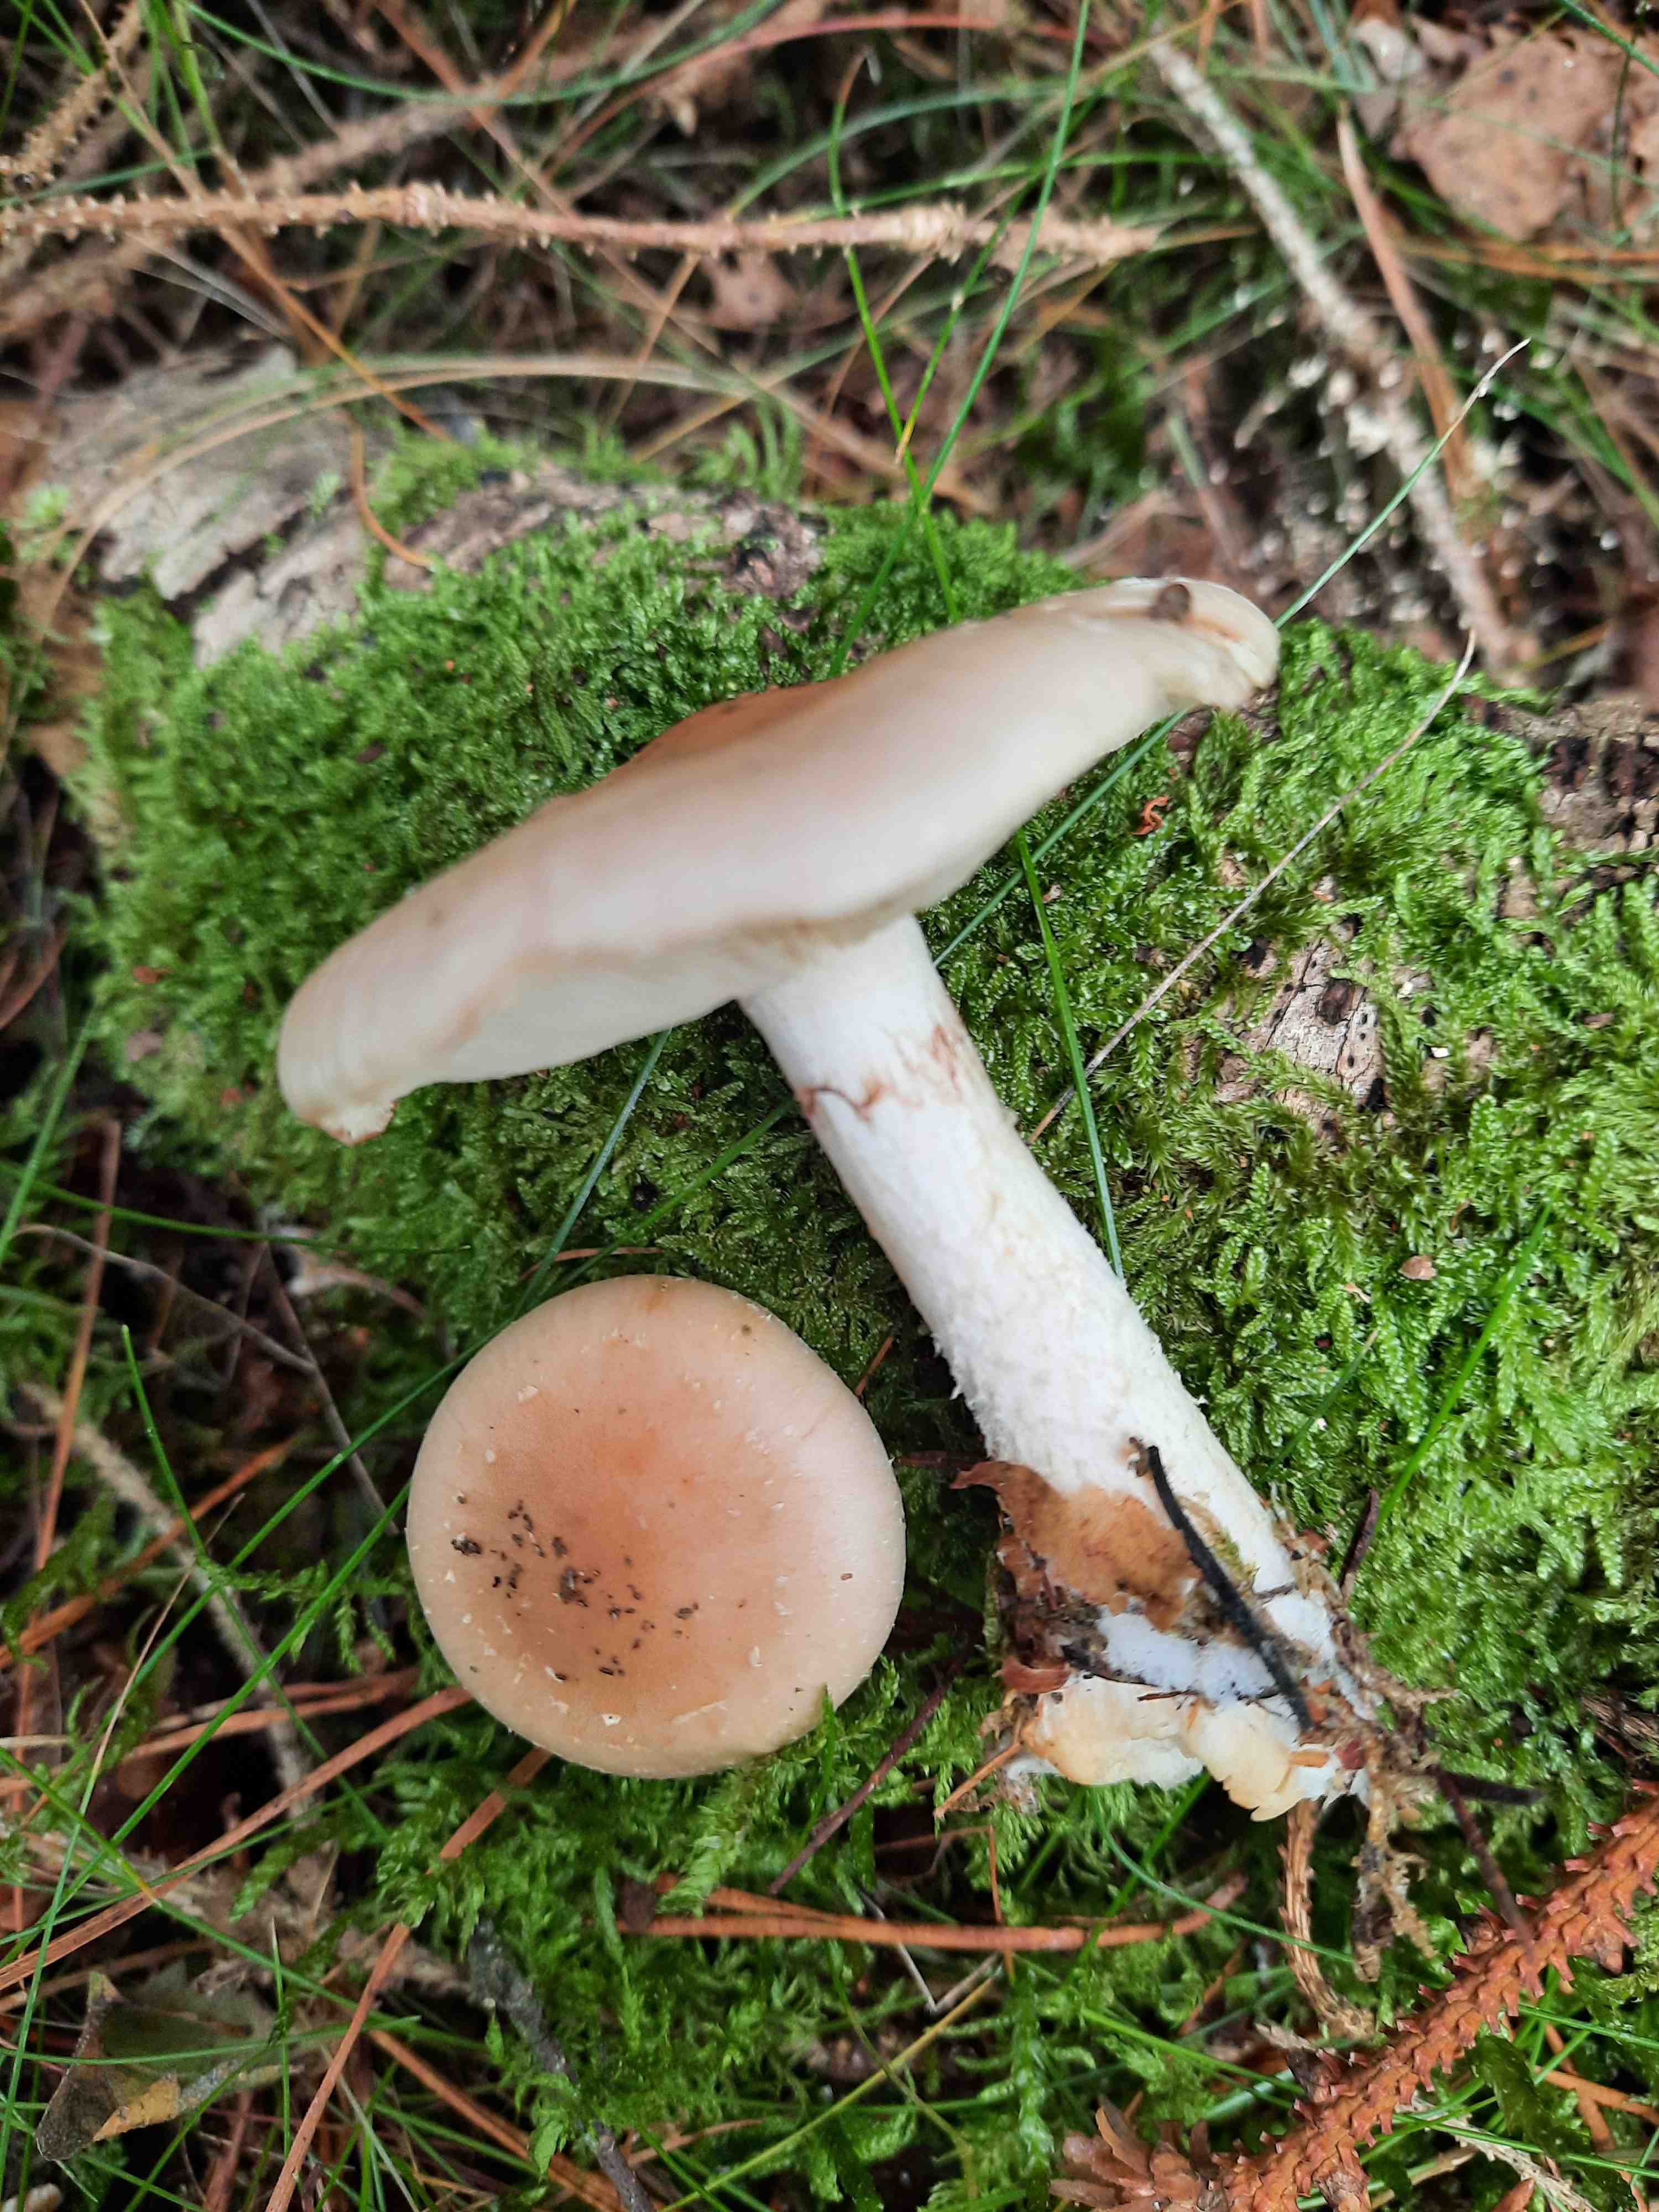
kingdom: Fungi
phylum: Basidiomycota
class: Agaricomycetes
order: Agaricales
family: Strophariaceae
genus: Pholiota
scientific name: Pholiota lenta
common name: løv-skælhat
